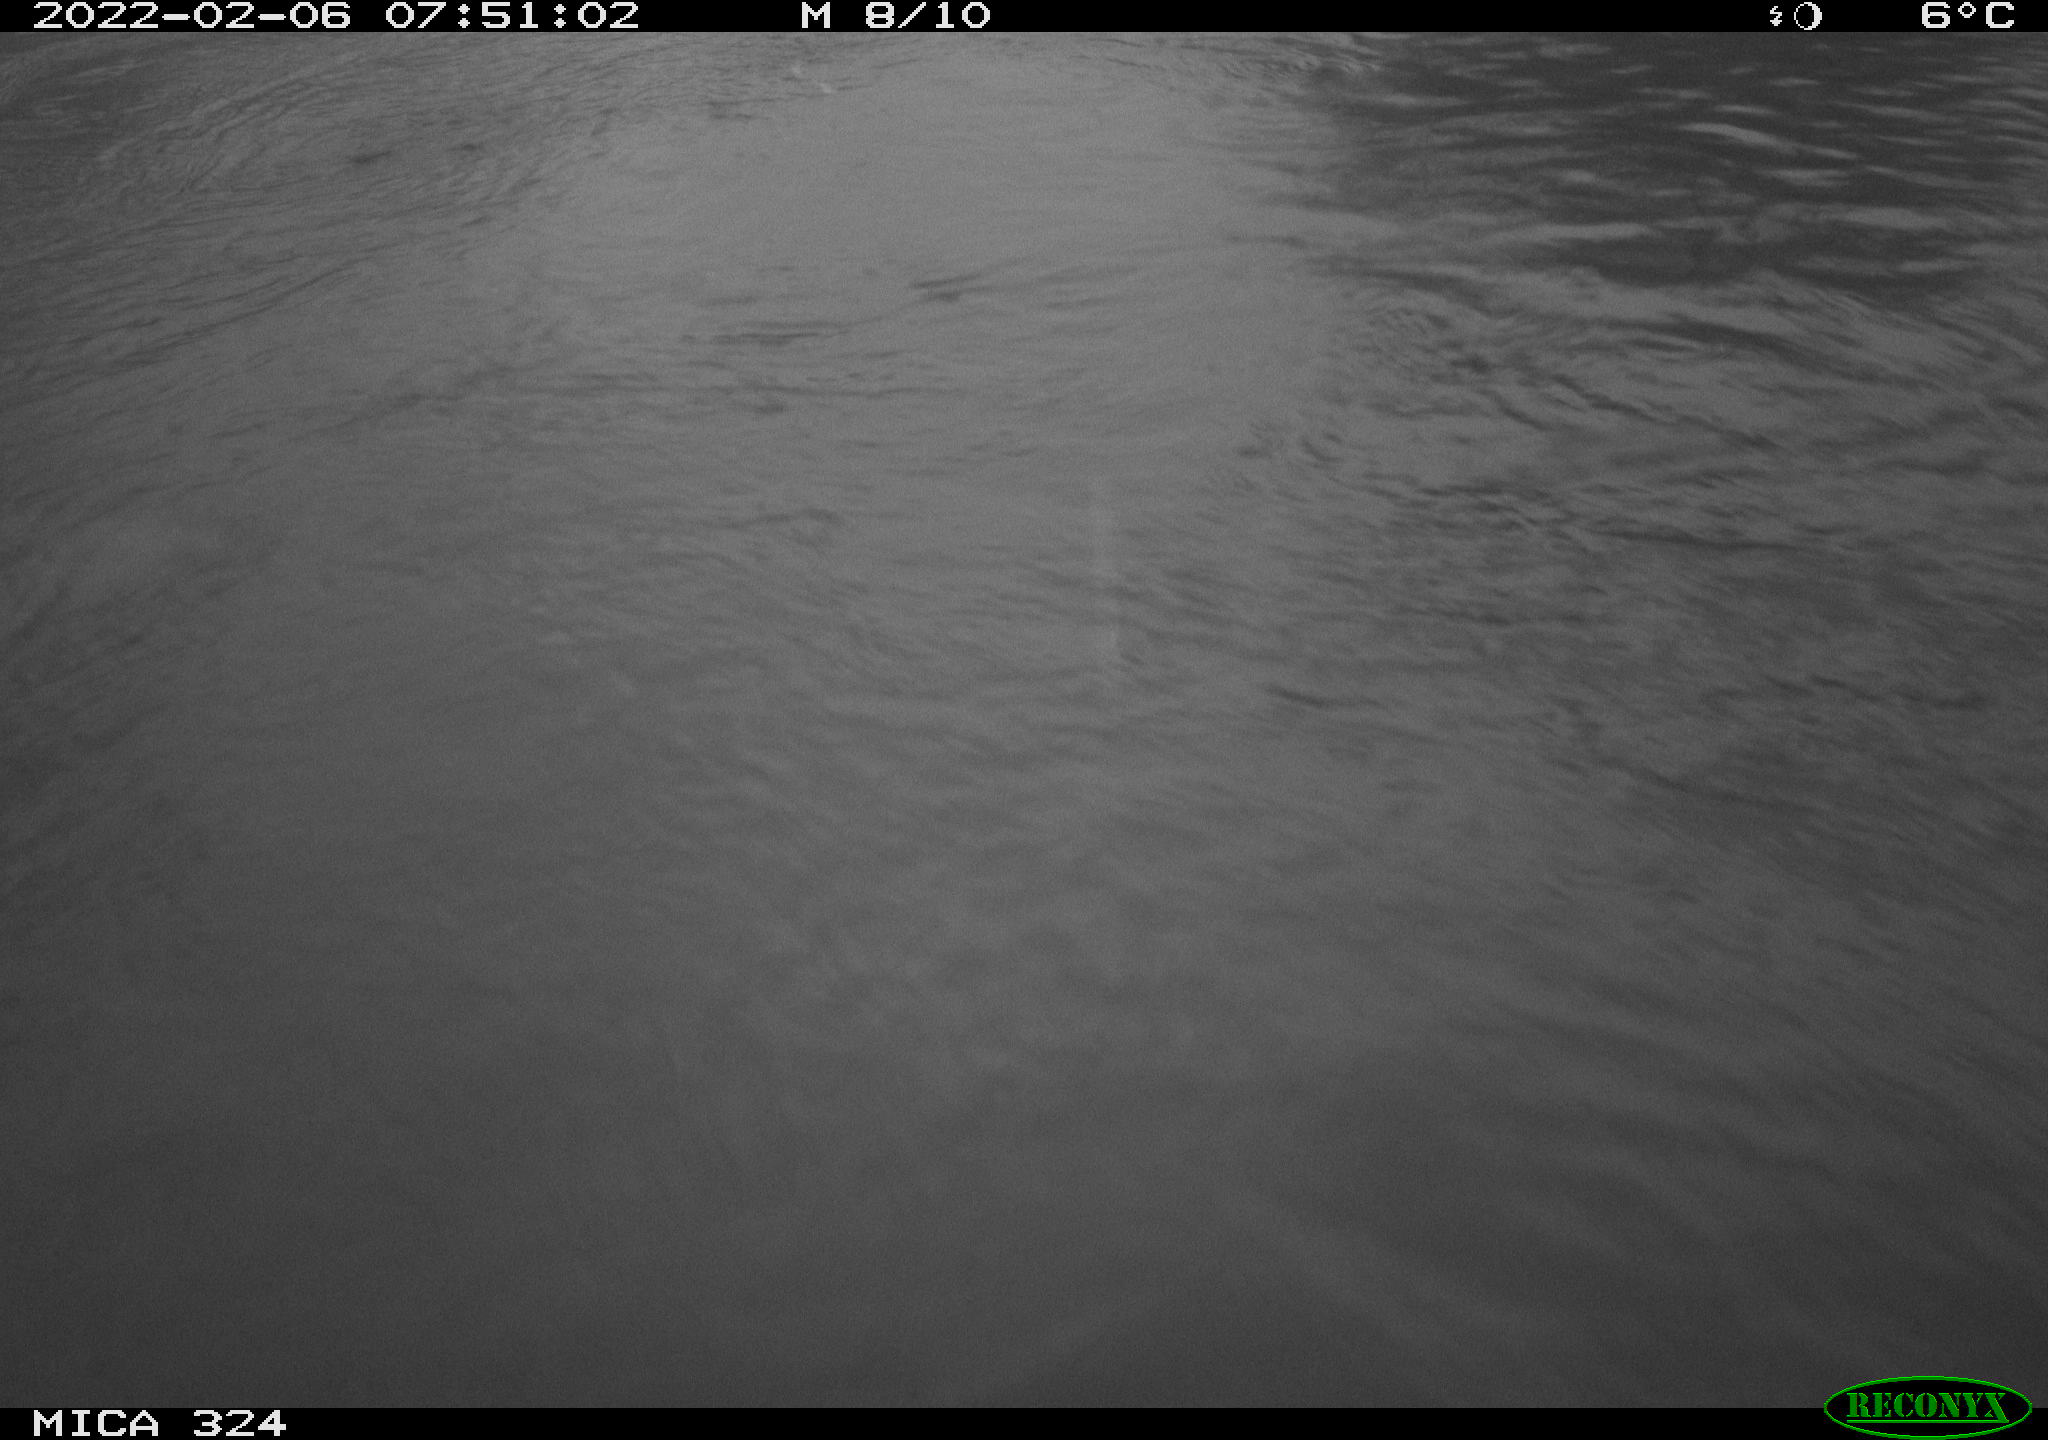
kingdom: Animalia
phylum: Chordata
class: Mammalia
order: Rodentia
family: Cricetidae
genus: Ondatra
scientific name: Ondatra zibethicus
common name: Muskrat
